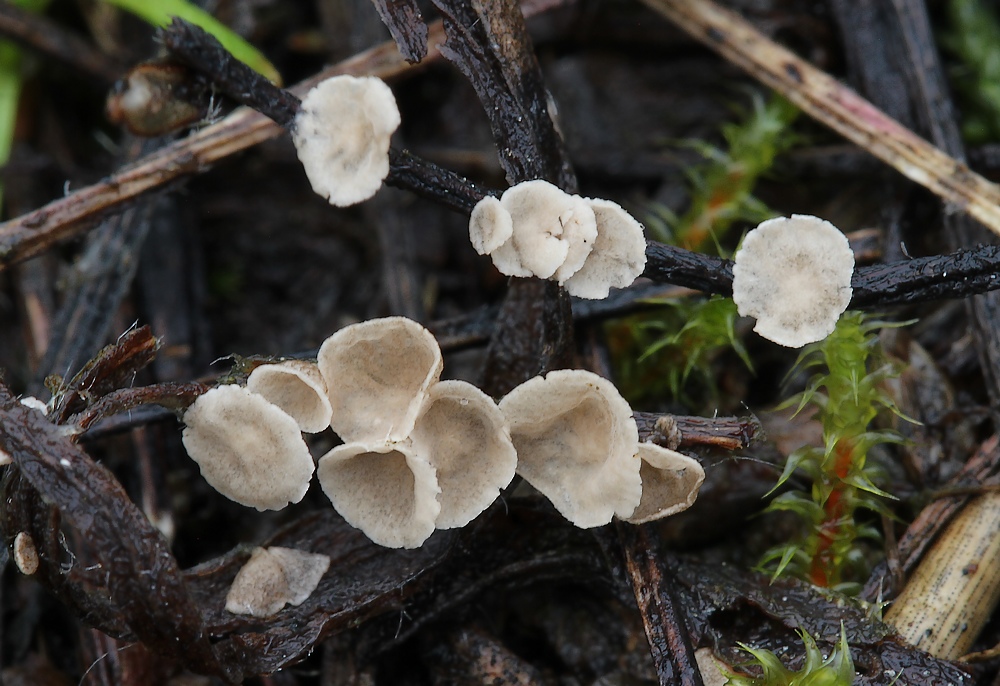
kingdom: Fungi
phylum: Basidiomycota
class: Agaricomycetes
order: Agaricales
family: Hygrophoraceae
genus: Arrhenia
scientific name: Arrhenia retiruga
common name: lille fontænehat
